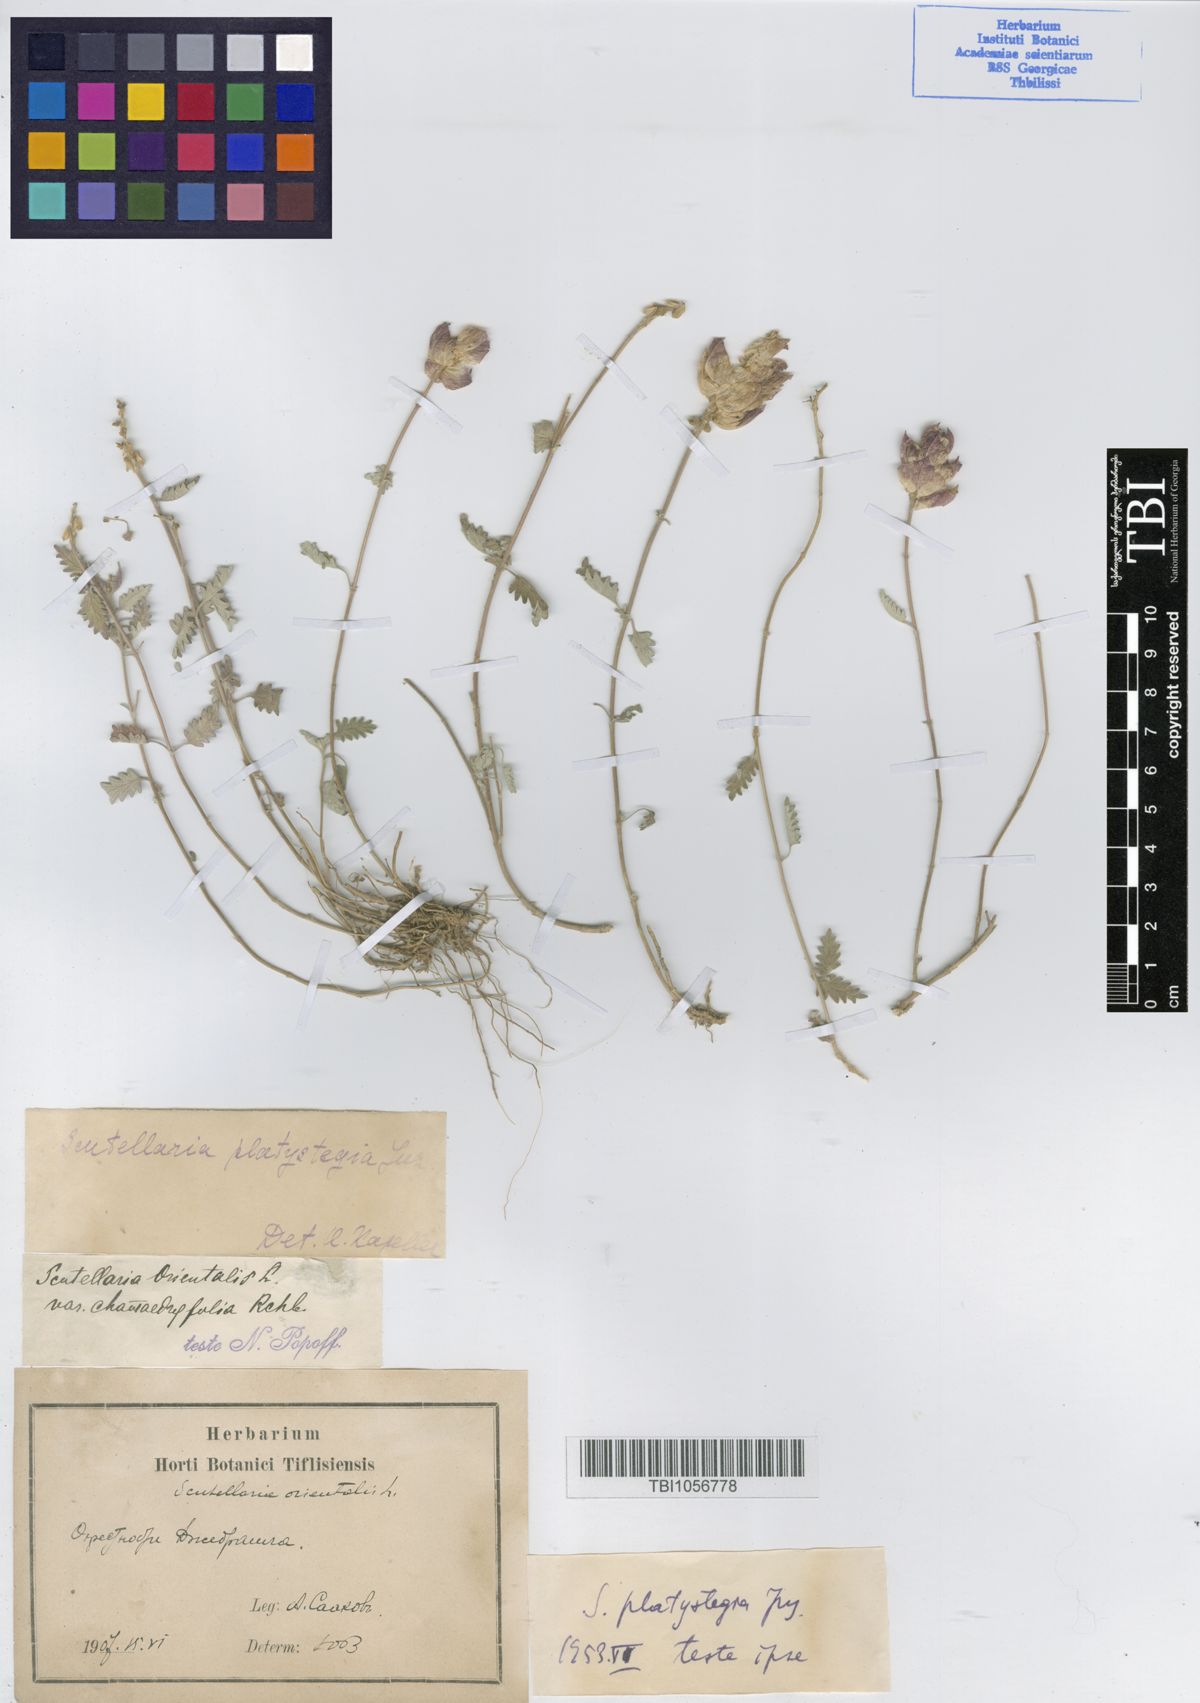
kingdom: Plantae
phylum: Tracheophyta
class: Magnoliopsida
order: Lamiales
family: Lamiaceae
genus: Scutellaria
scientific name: Scutellaria platystegia
